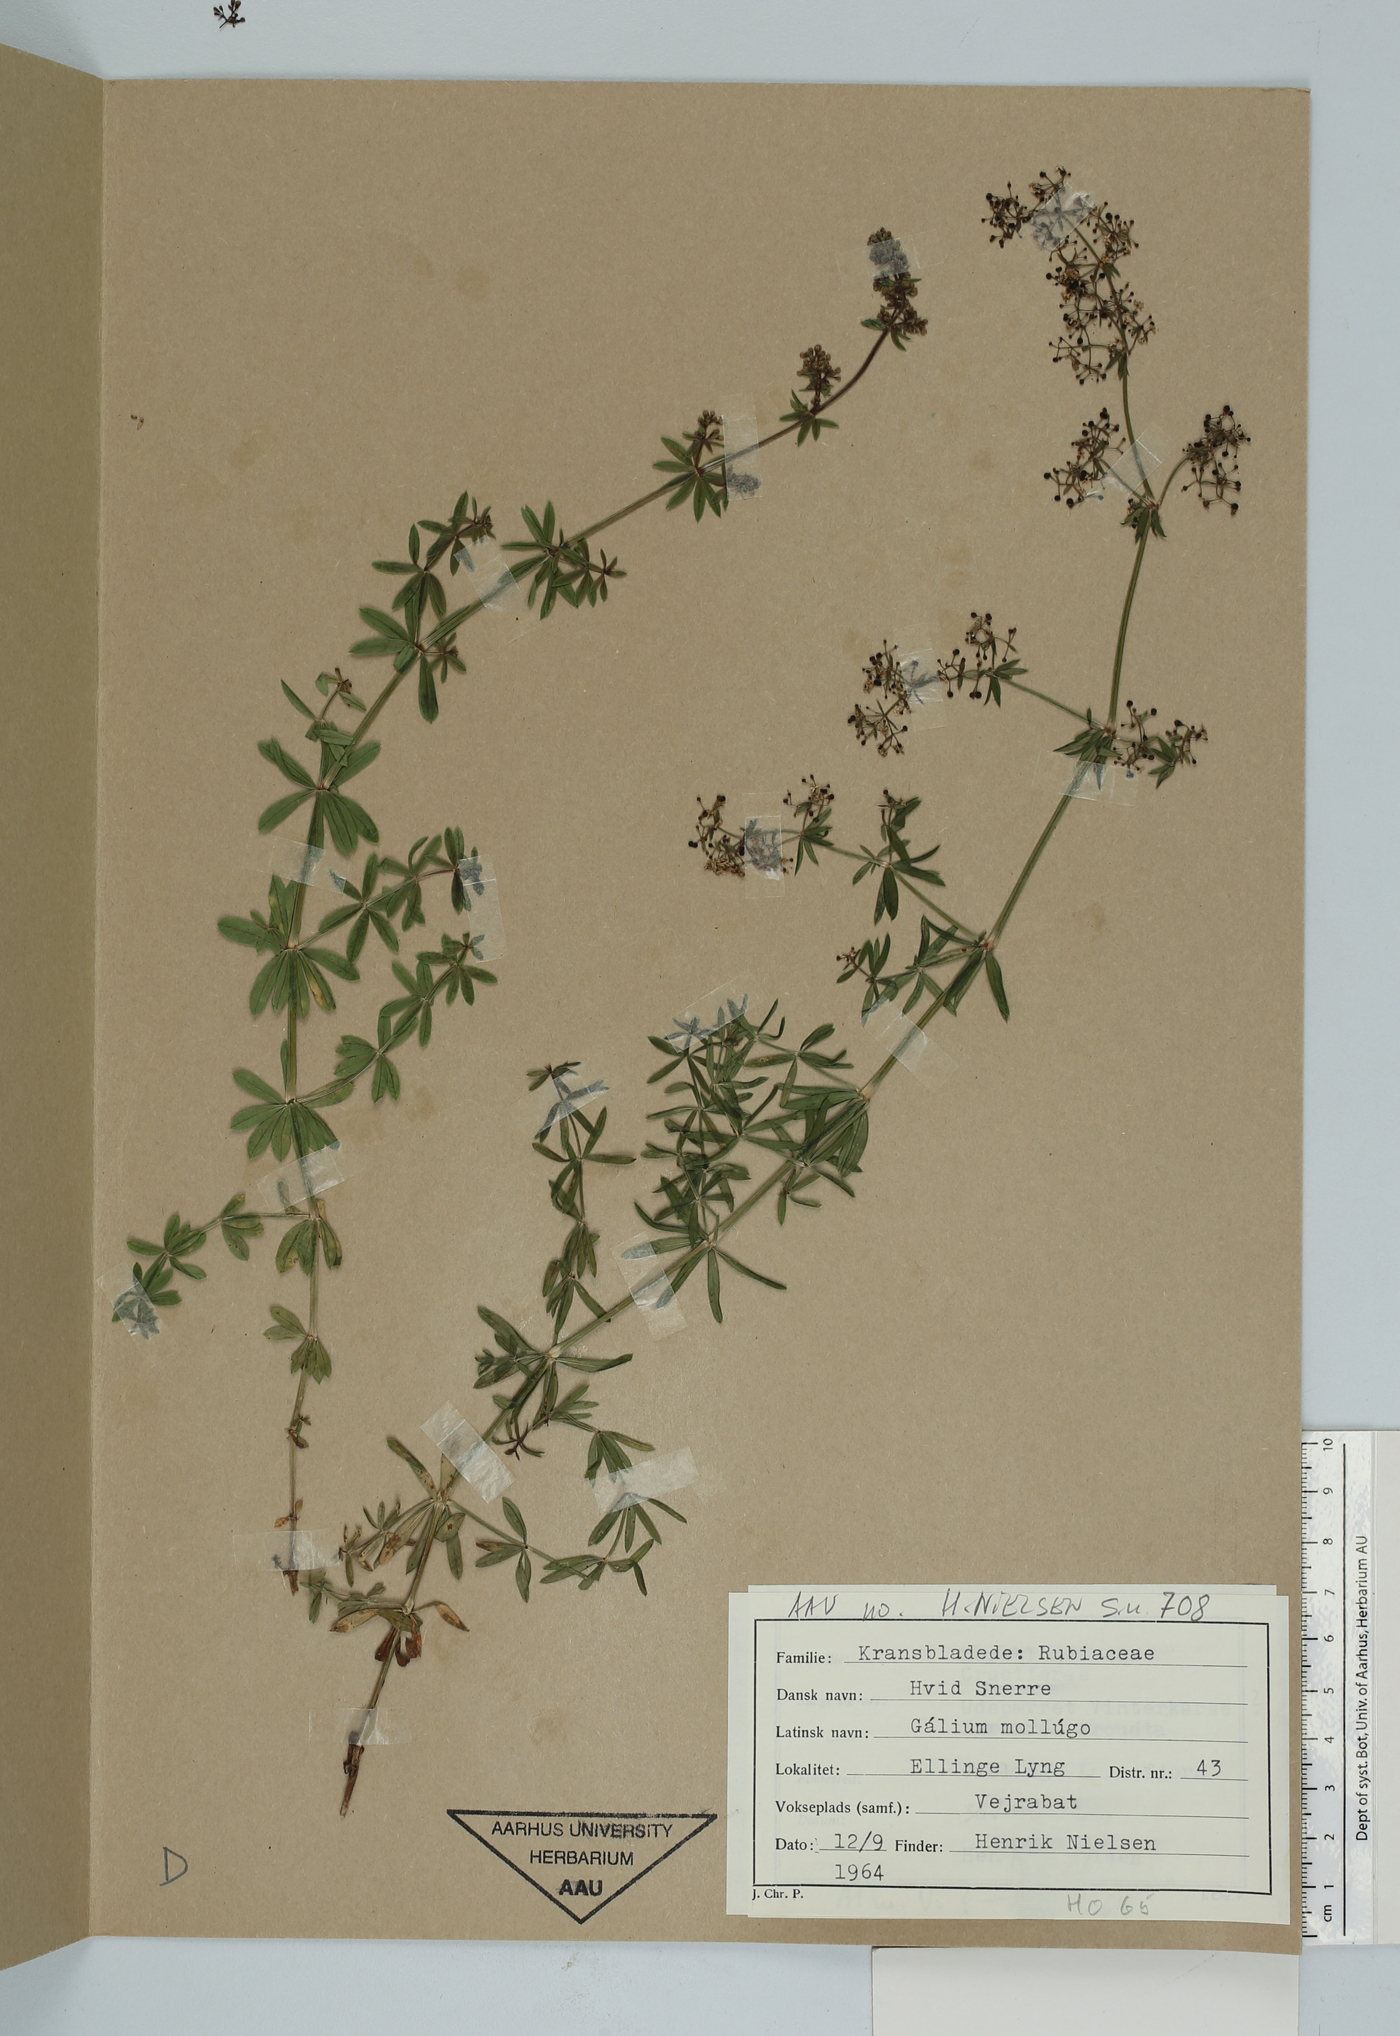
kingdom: Plantae
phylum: Tracheophyta
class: Magnoliopsida
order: Gentianales
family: Rubiaceae
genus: Galium
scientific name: Galium mollugo
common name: Hedge bedstraw
